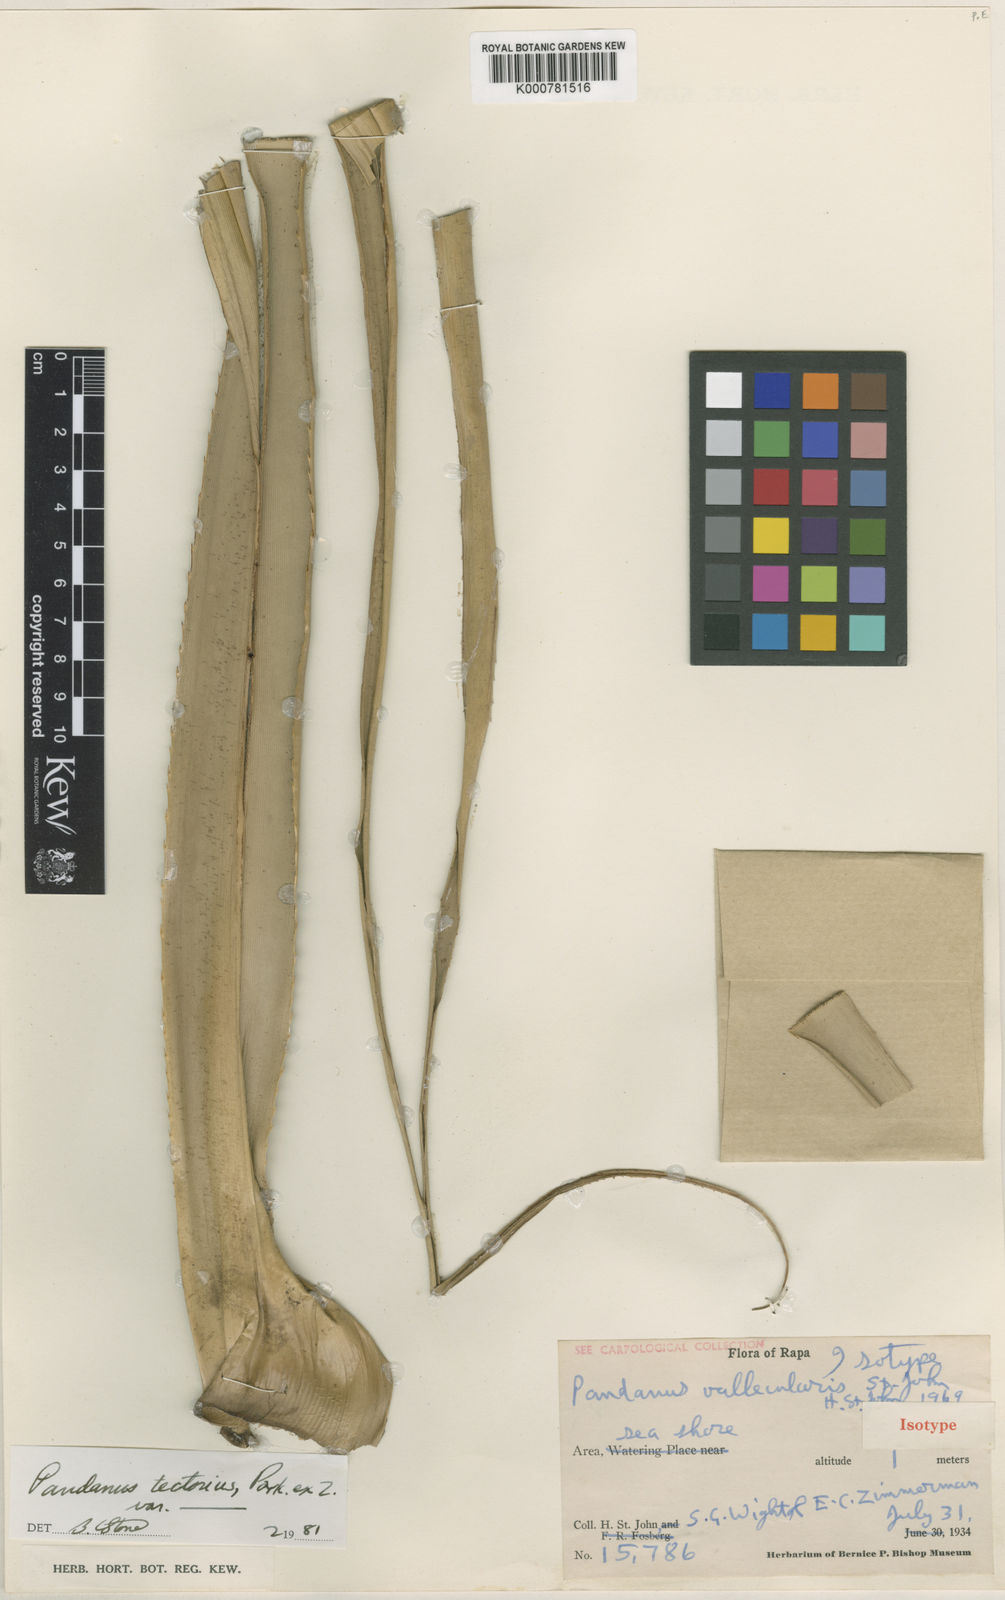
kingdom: Plantae
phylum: Tracheophyta
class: Liliopsida
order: Pandanales
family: Pandanaceae
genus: Pandanus
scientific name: Pandanus
